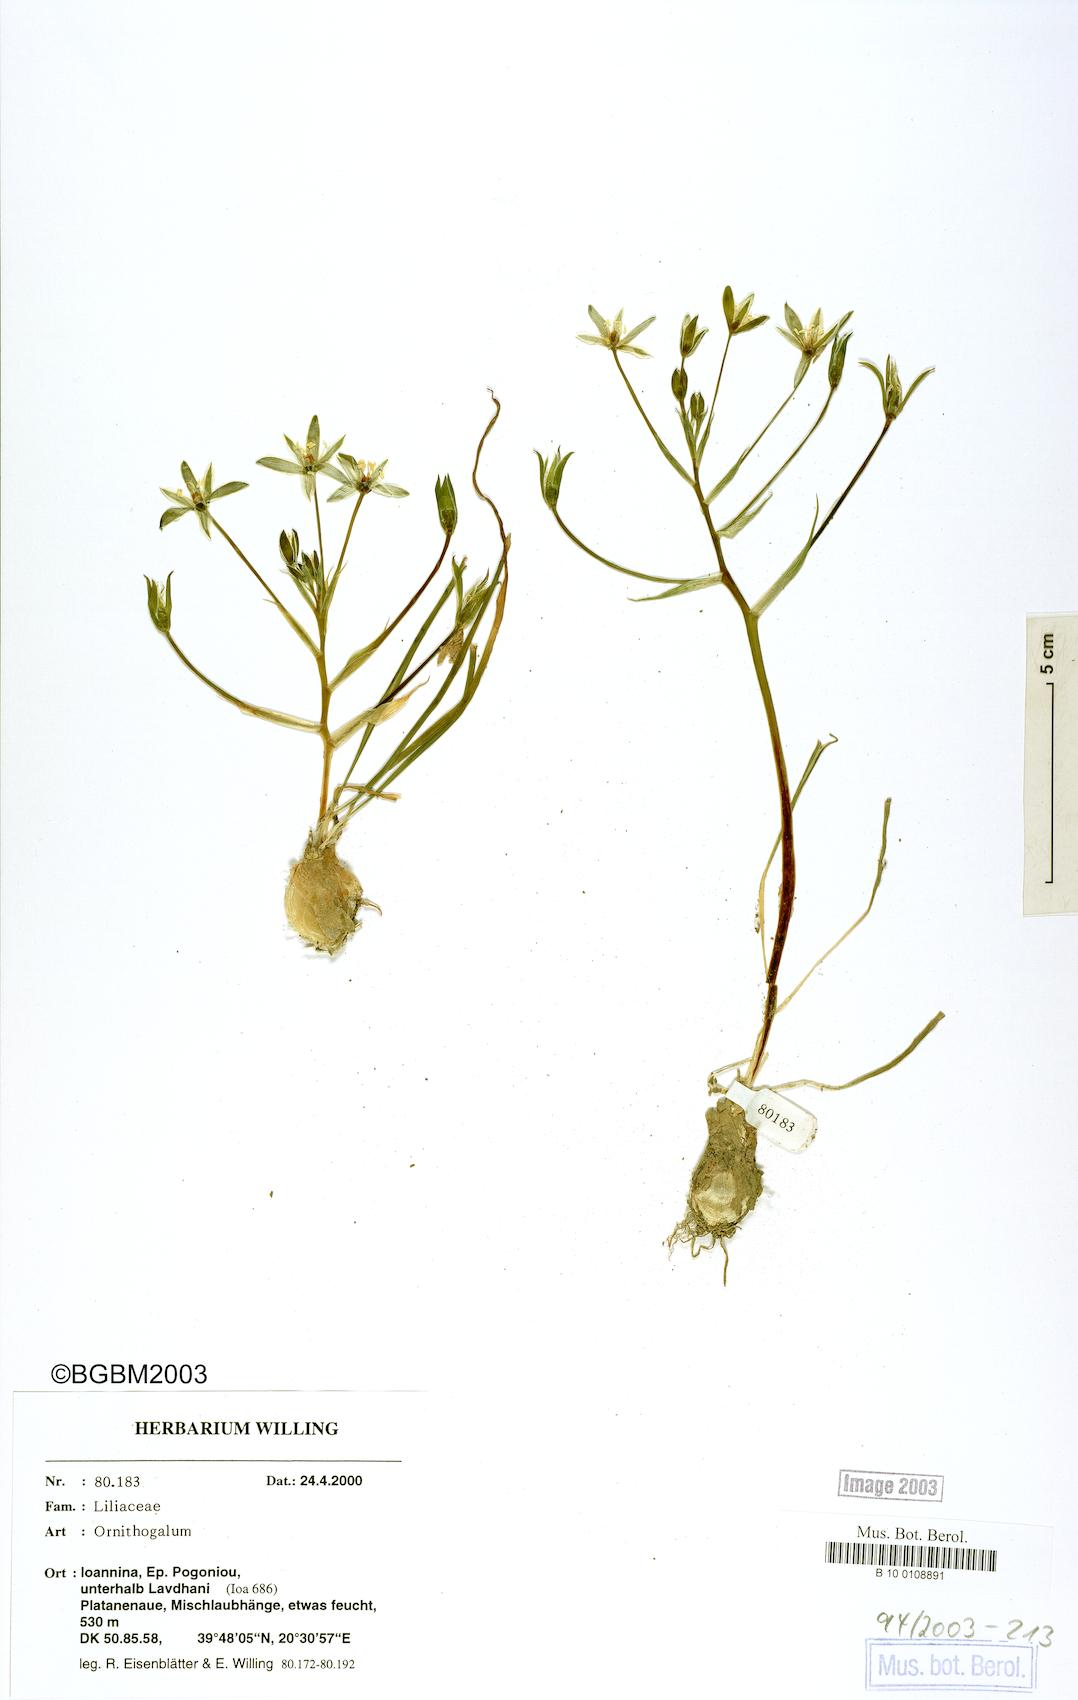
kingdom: Plantae
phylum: Tracheophyta
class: Liliopsida
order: Asparagales
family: Asparagaceae
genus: Ornithogalum
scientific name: Ornithogalum
